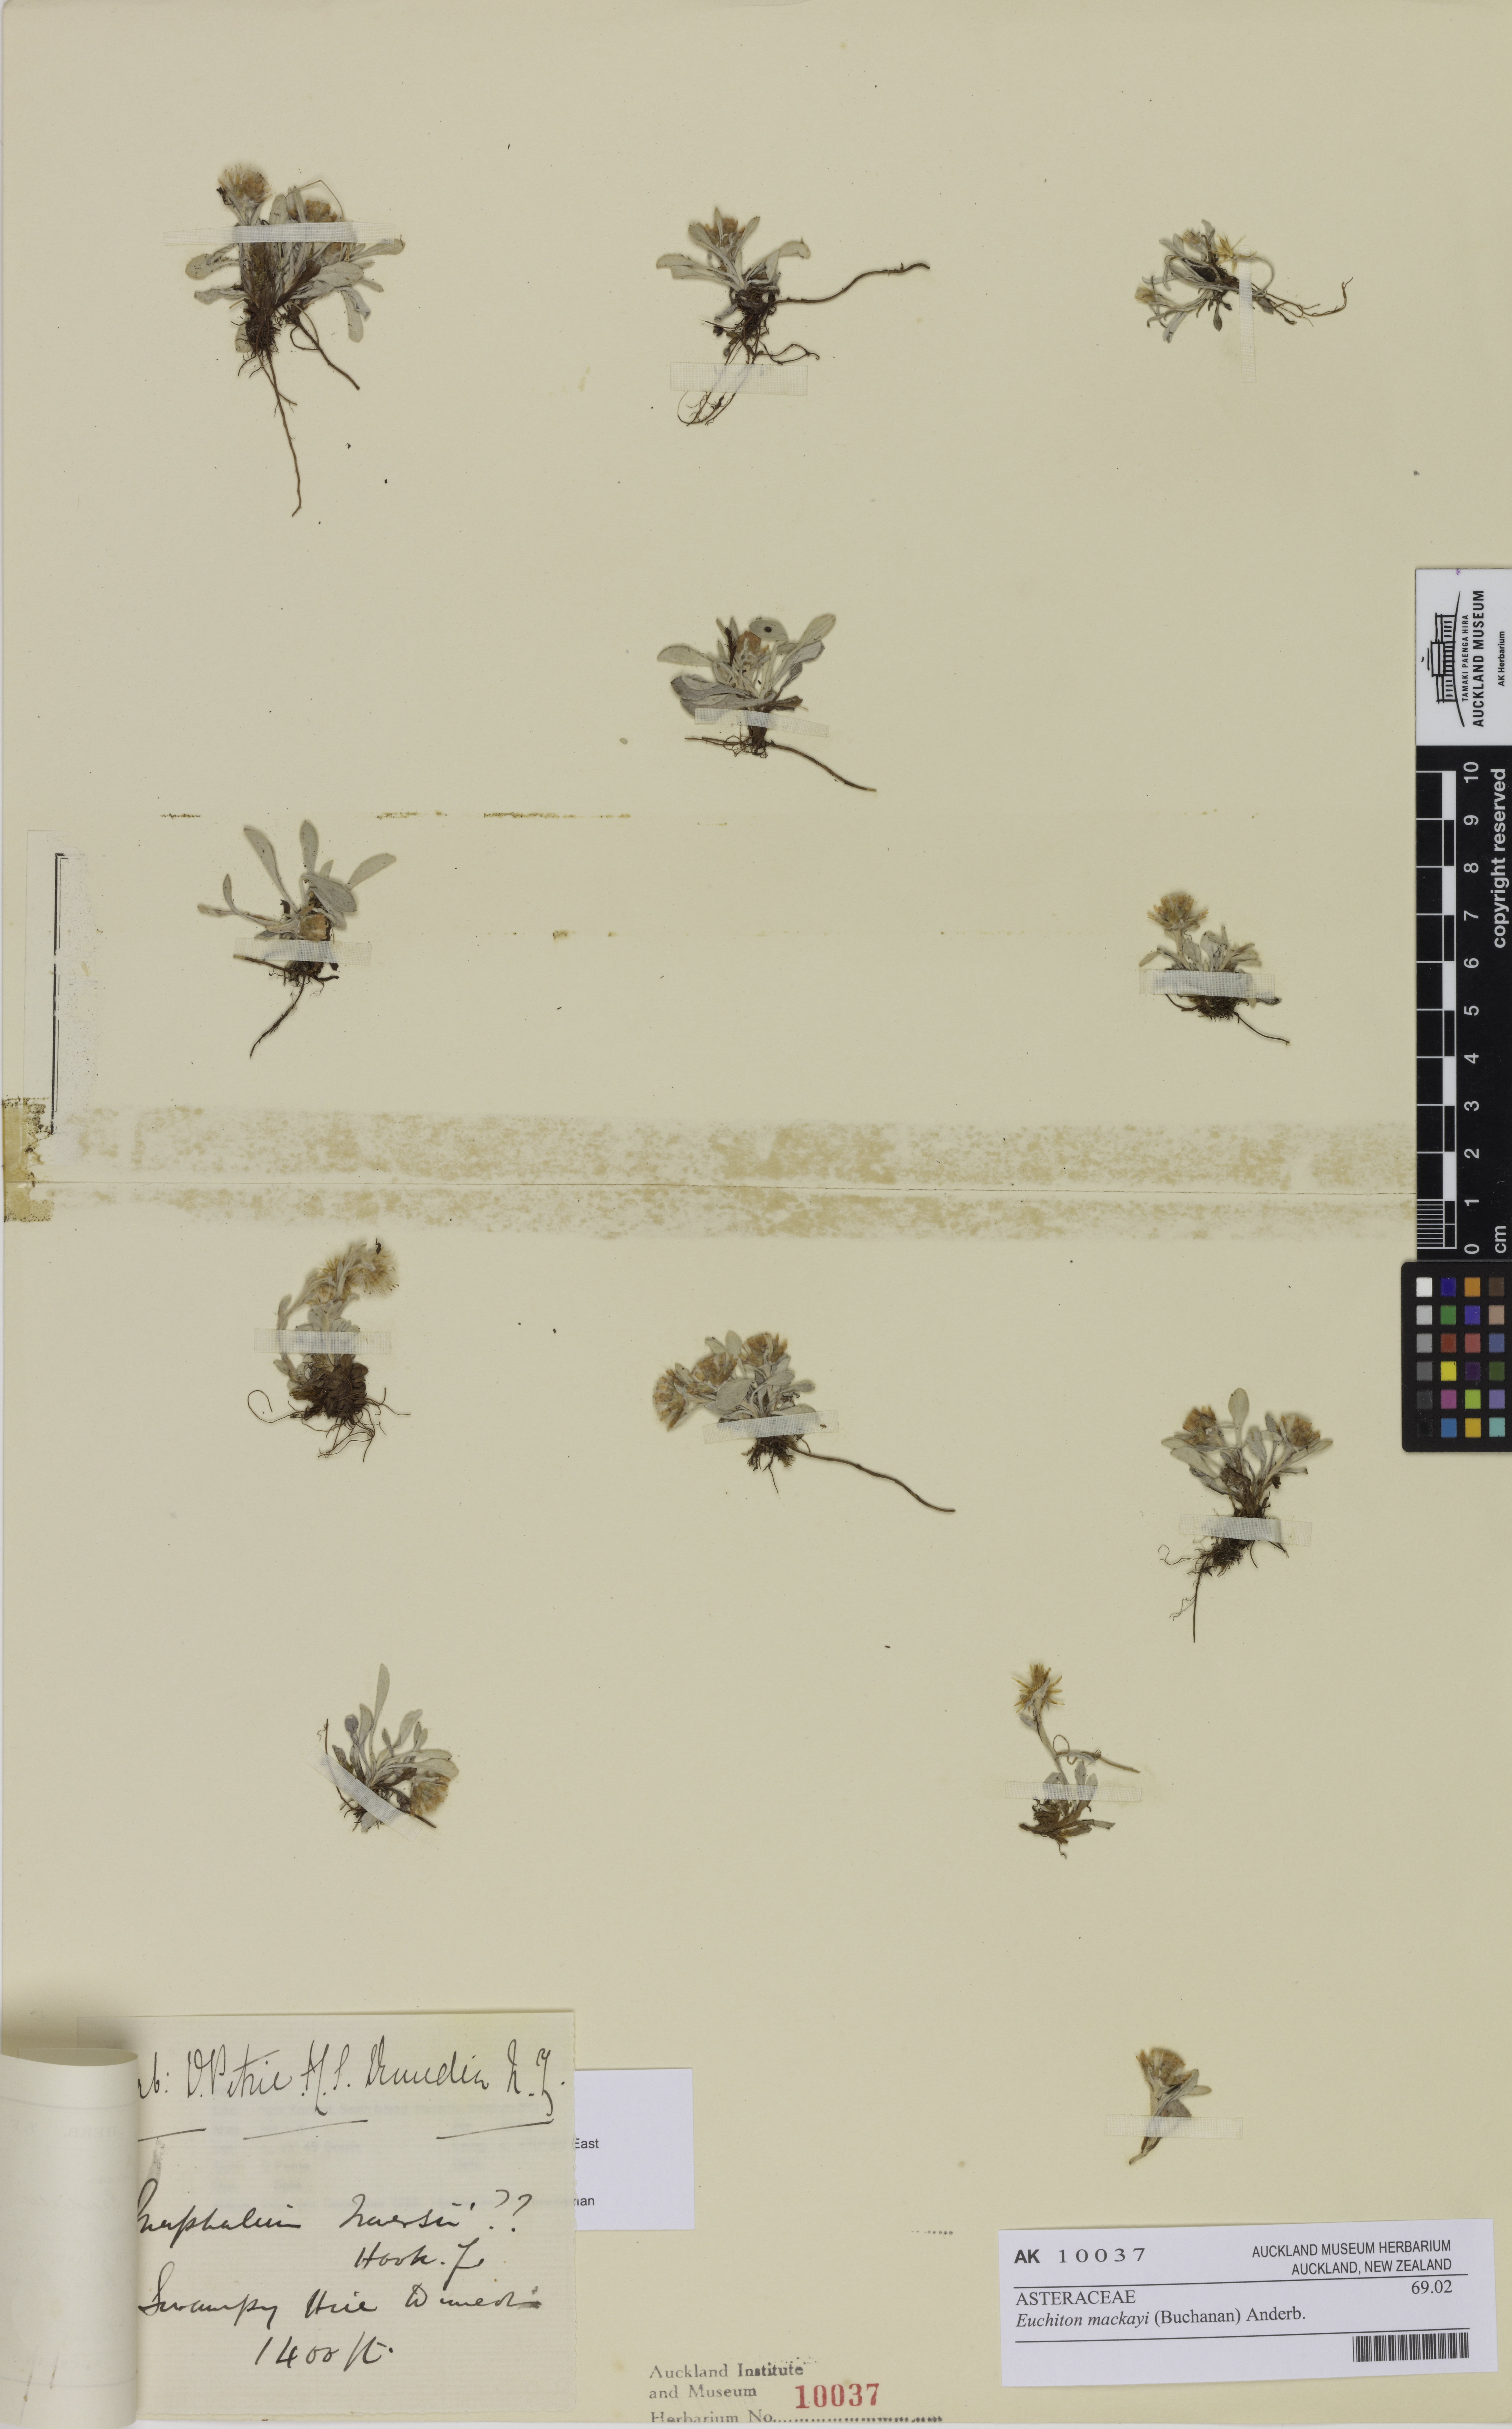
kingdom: Plantae
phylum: Tracheophyta
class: Magnoliopsida
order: Asterales
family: Asteraceae
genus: Argyrotegium
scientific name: Argyrotegium mackayi
